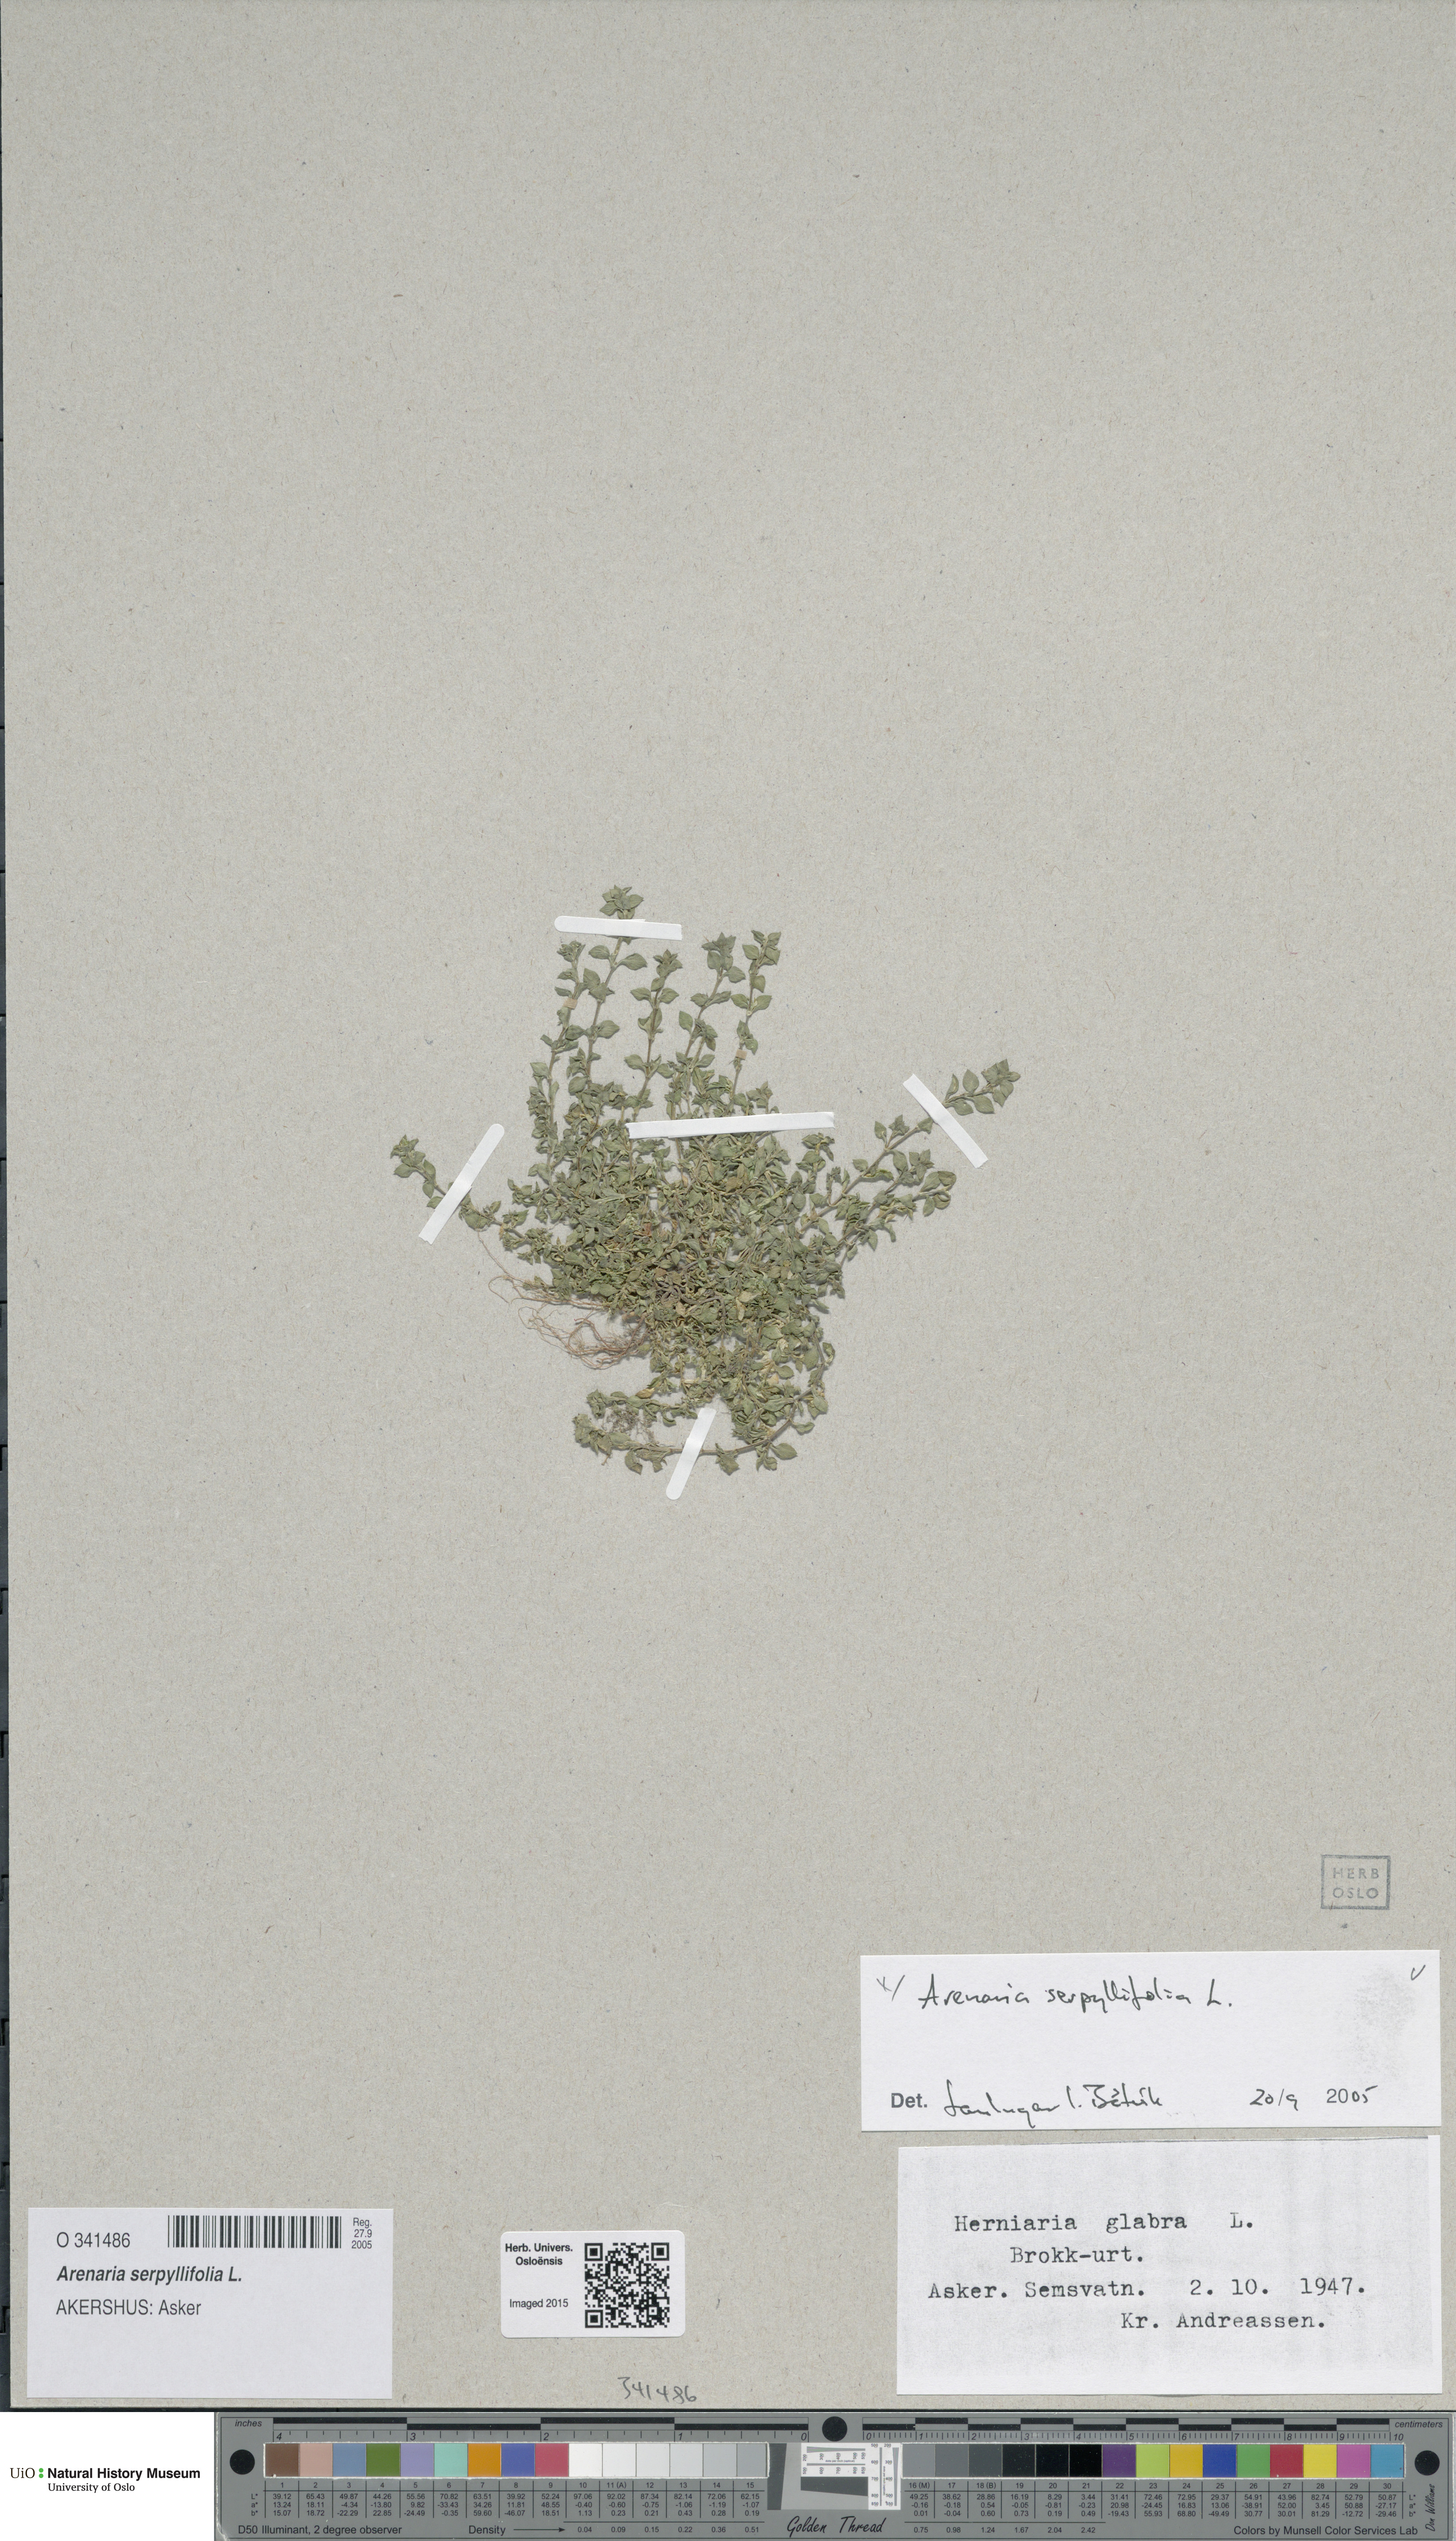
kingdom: Plantae
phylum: Tracheophyta
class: Magnoliopsida
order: Caryophyllales
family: Caryophyllaceae
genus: Arenaria
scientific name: Arenaria serpyllifolia
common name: Thyme-leaved sandwort
